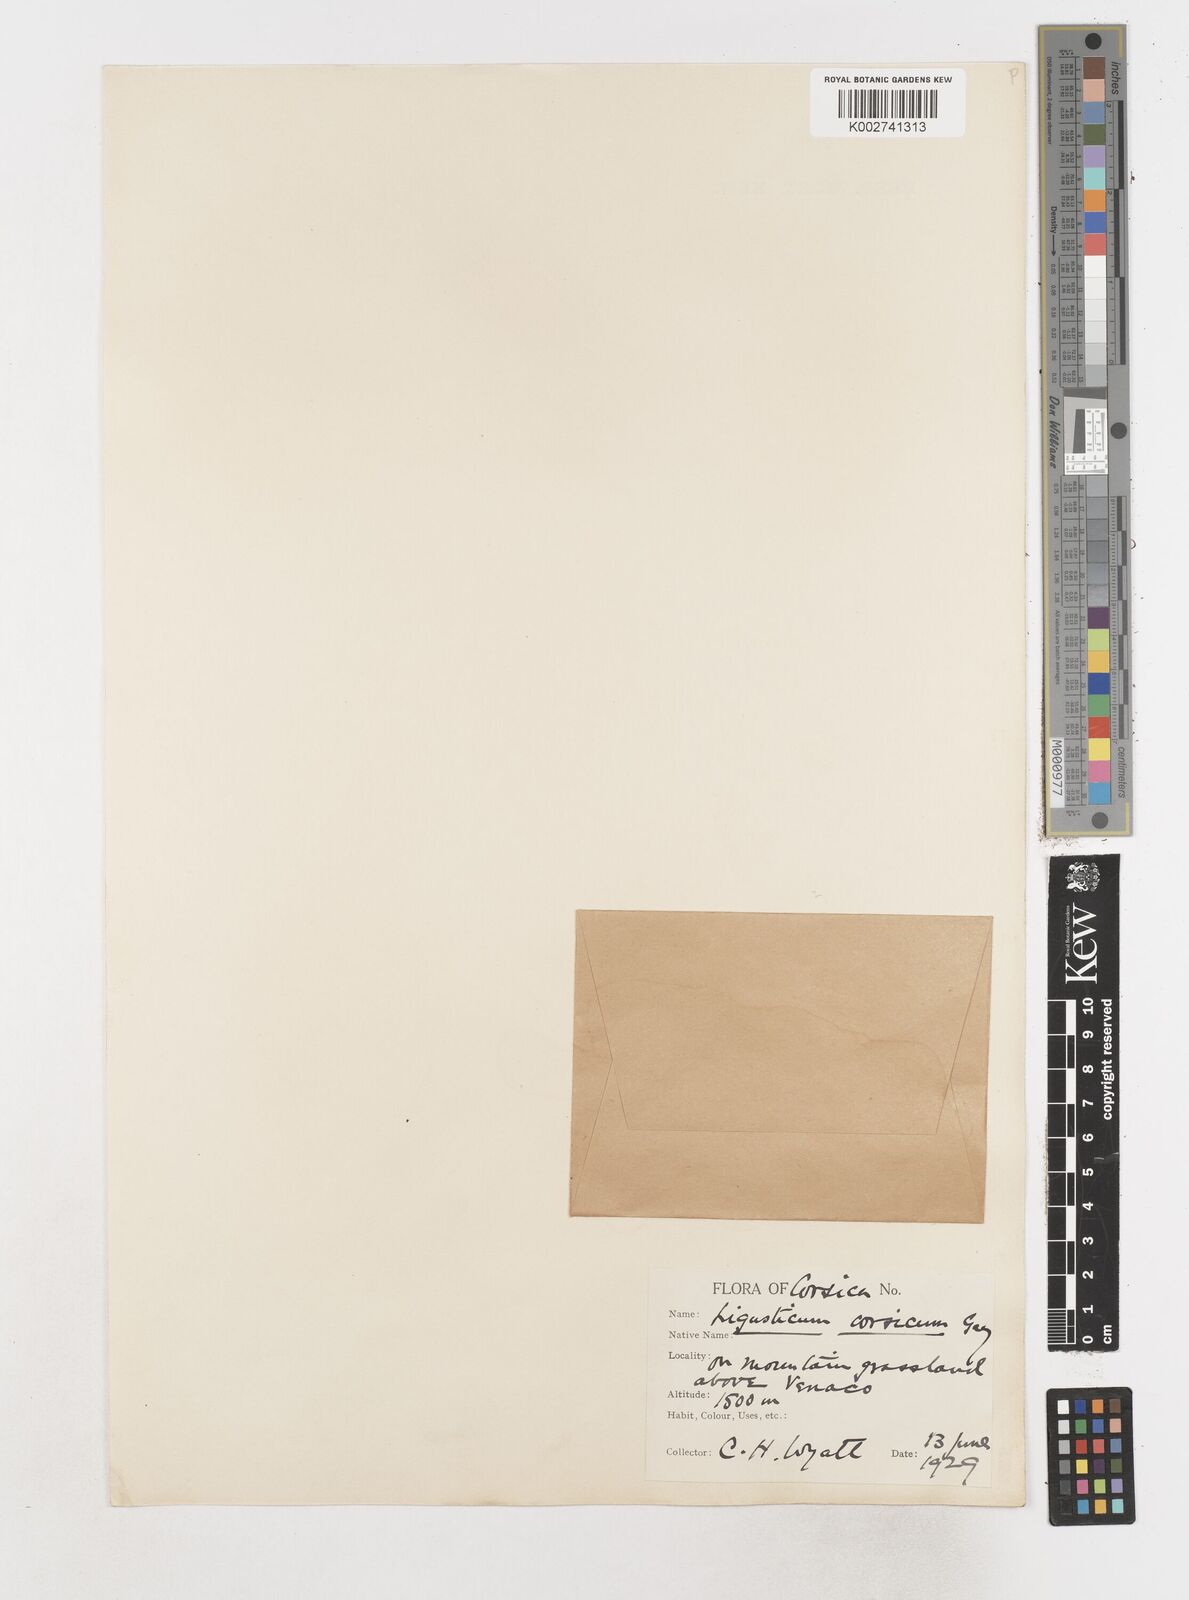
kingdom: Plantae
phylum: Tracheophyta
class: Magnoliopsida
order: Apiales
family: Apiaceae
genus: Mutellina
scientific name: Mutellina adonidifolia
